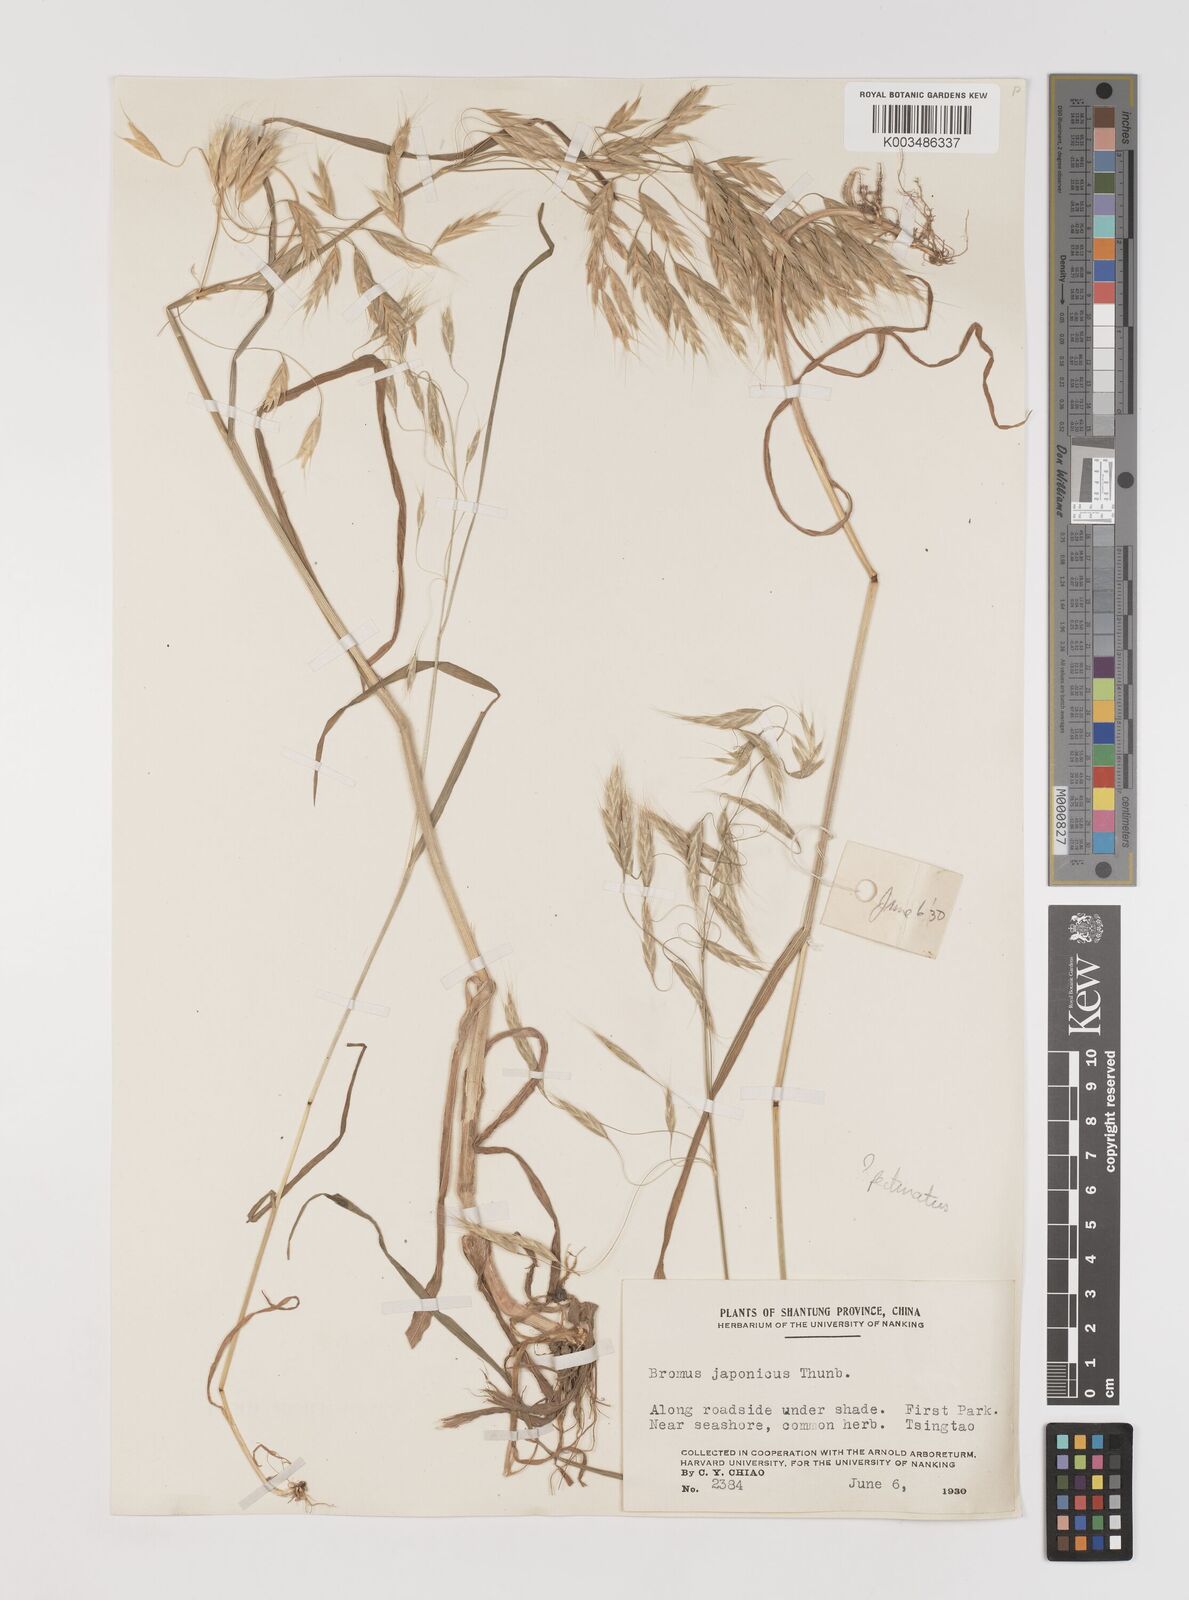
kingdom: Plantae
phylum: Tracheophyta
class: Liliopsida
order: Poales
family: Poaceae
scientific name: Poaceae
